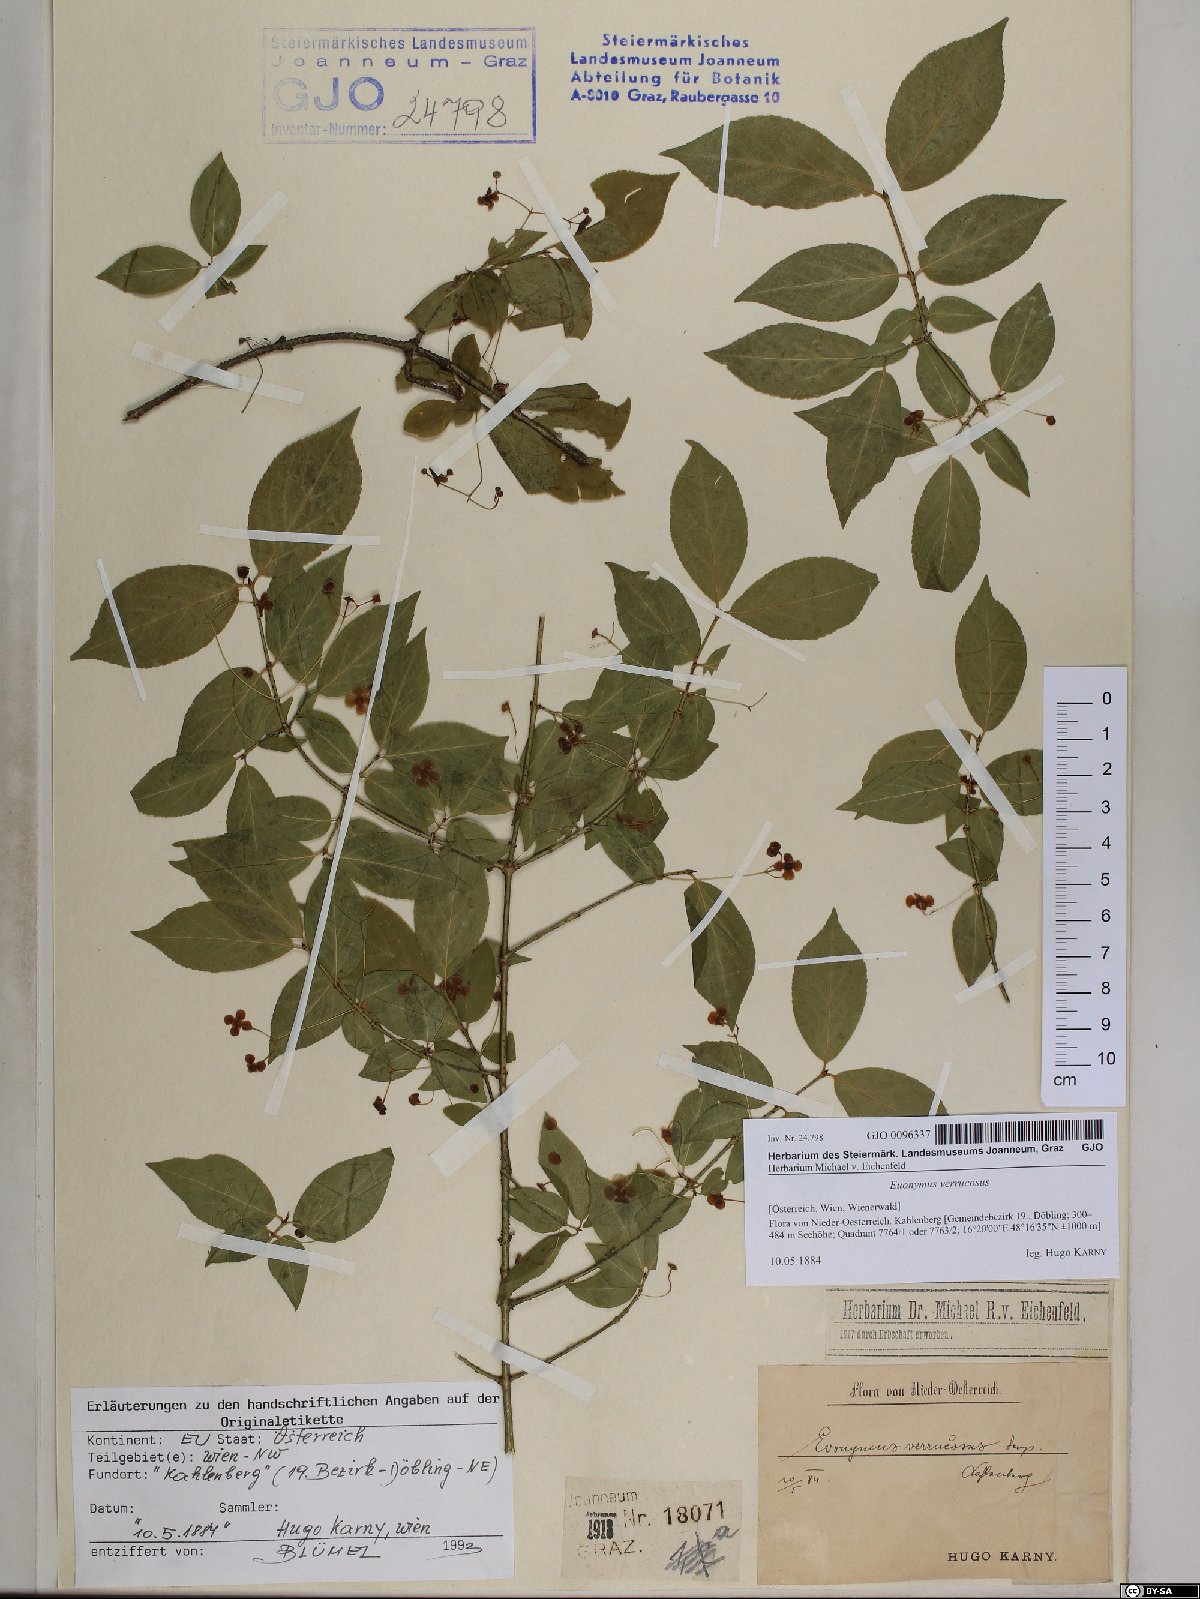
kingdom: Plantae
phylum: Tracheophyta
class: Magnoliopsida
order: Celastrales
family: Celastraceae
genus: Euonymus
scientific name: Euonymus verrucosus
